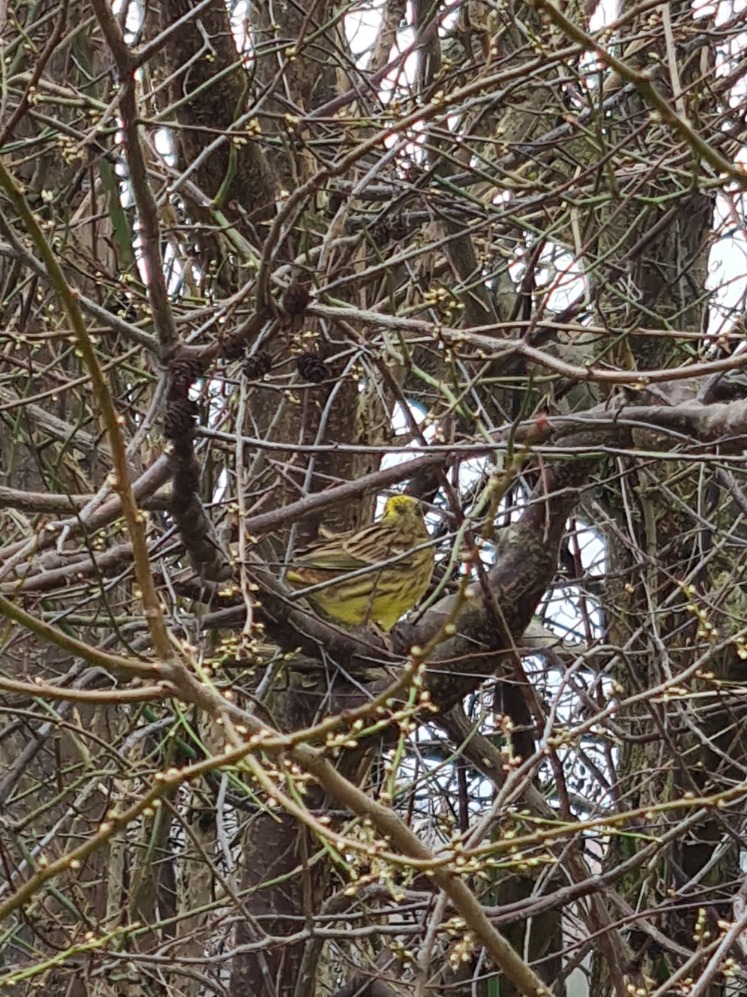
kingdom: Animalia
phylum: Chordata
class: Aves
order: Passeriformes
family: Emberizidae
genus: Emberiza
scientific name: Emberiza citrinella
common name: Gulspurv
